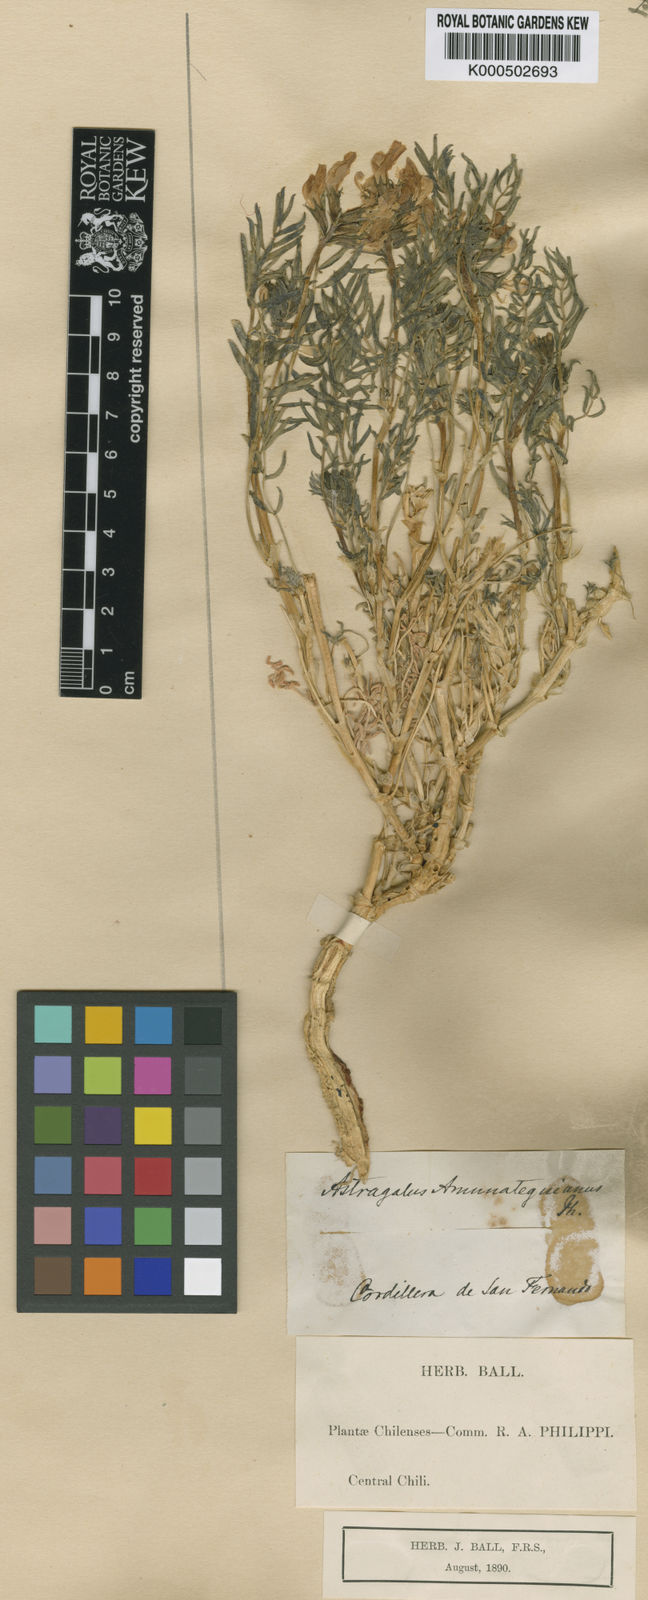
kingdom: Plantae
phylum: Tracheophyta
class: Magnoliopsida
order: Fabales
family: Fabaceae
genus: Astragalus
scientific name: Astragalus
